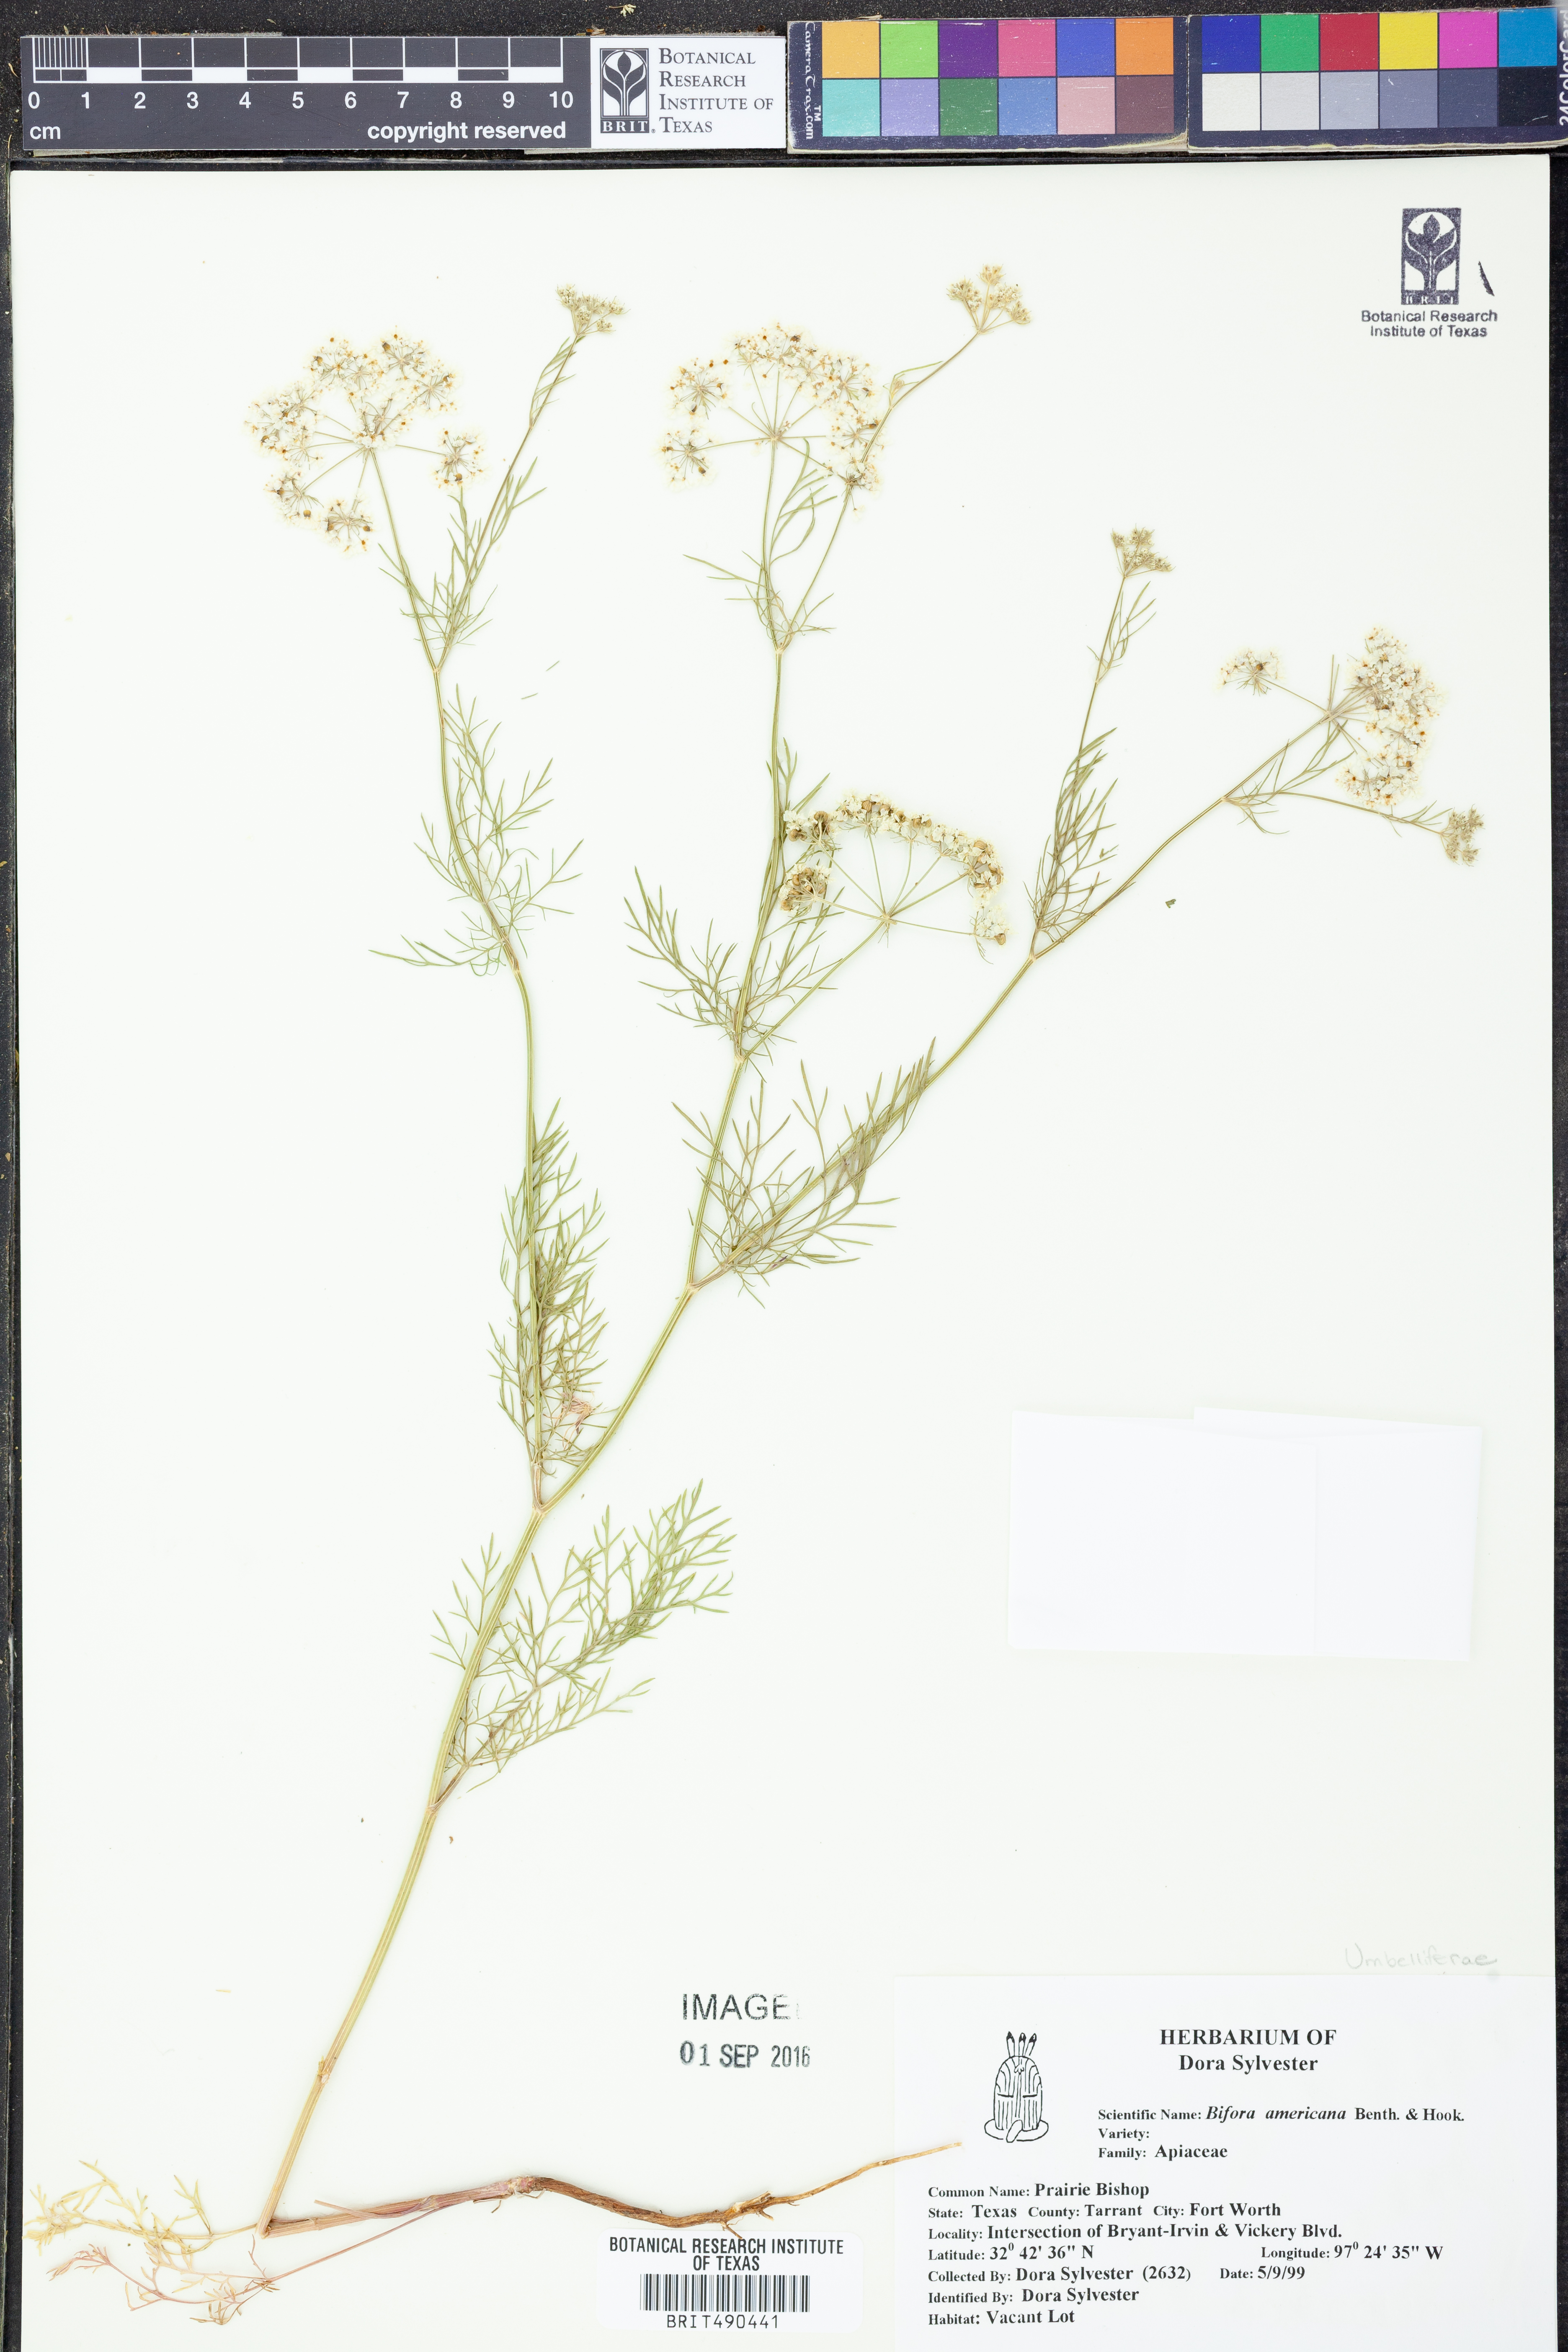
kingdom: Plantae
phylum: Tracheophyta
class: Magnoliopsida
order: Apiales
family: Apiaceae
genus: Atrema
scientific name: Atrema americanum
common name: Prairie-bishop
